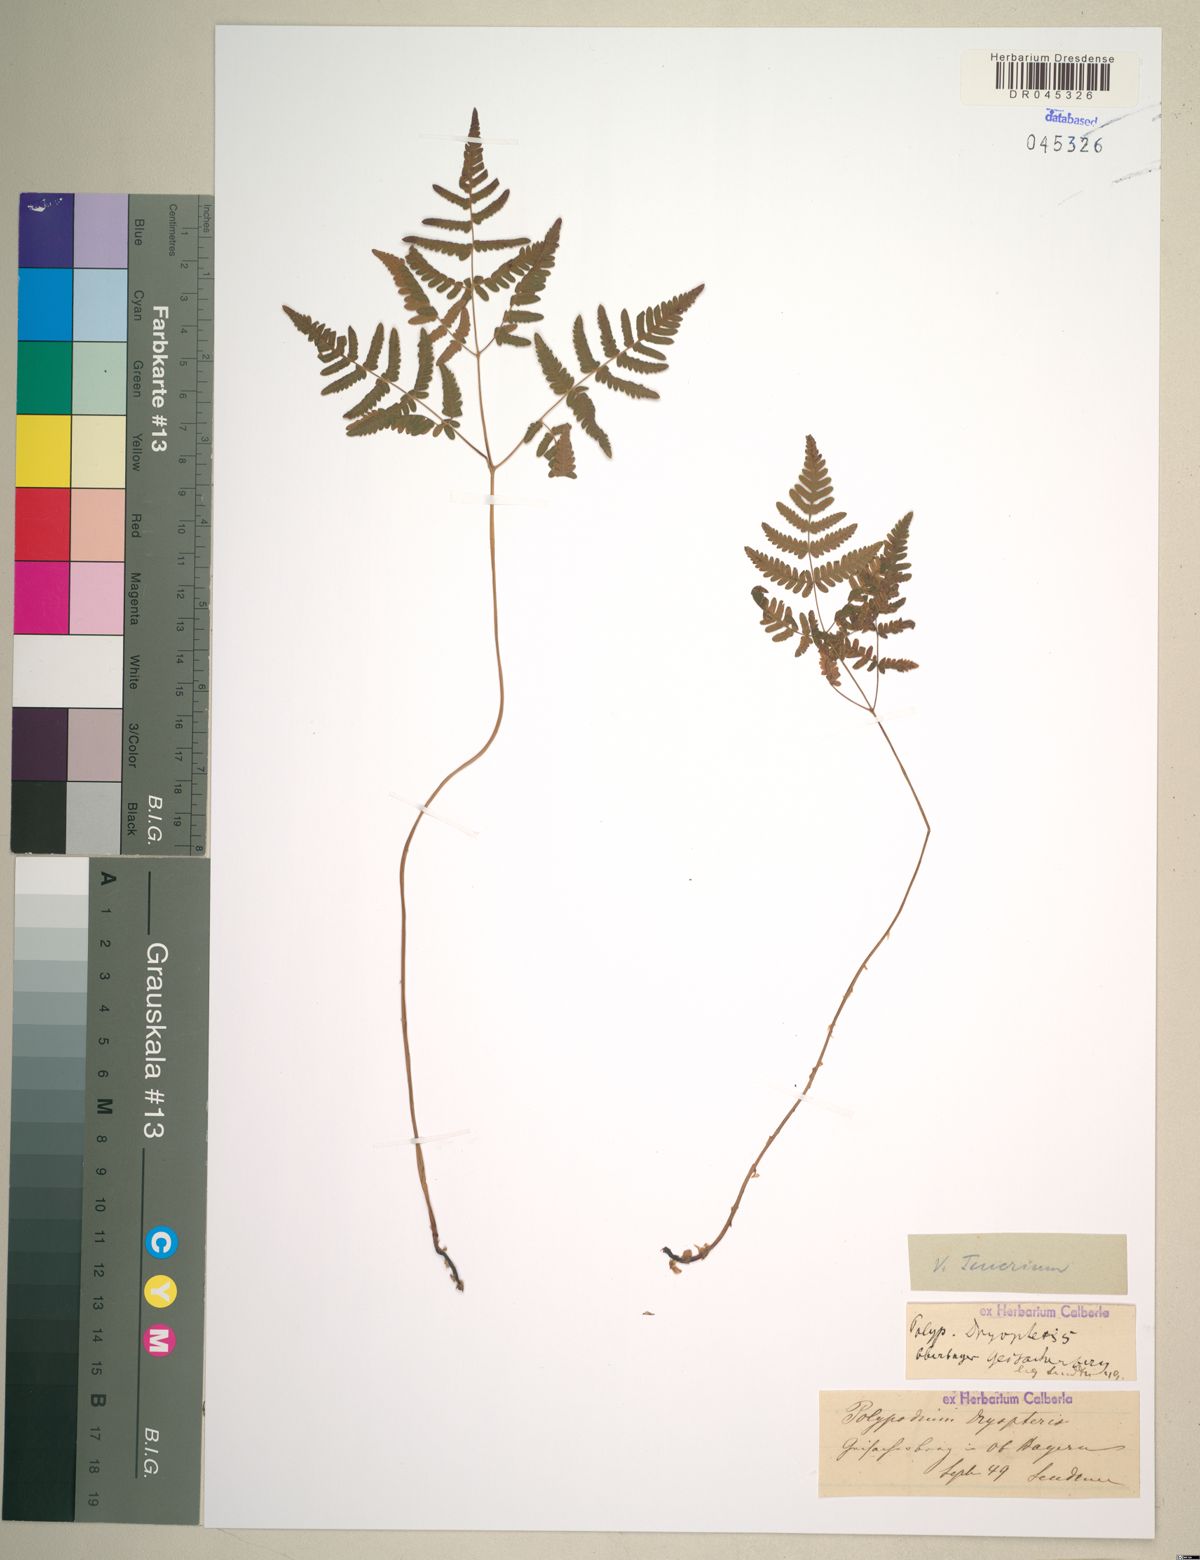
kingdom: Plantae
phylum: Tracheophyta
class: Polypodiopsida
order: Polypodiales
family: Cystopteridaceae
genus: Gymnocarpium
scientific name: Gymnocarpium dryopteris
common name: Oak fern
